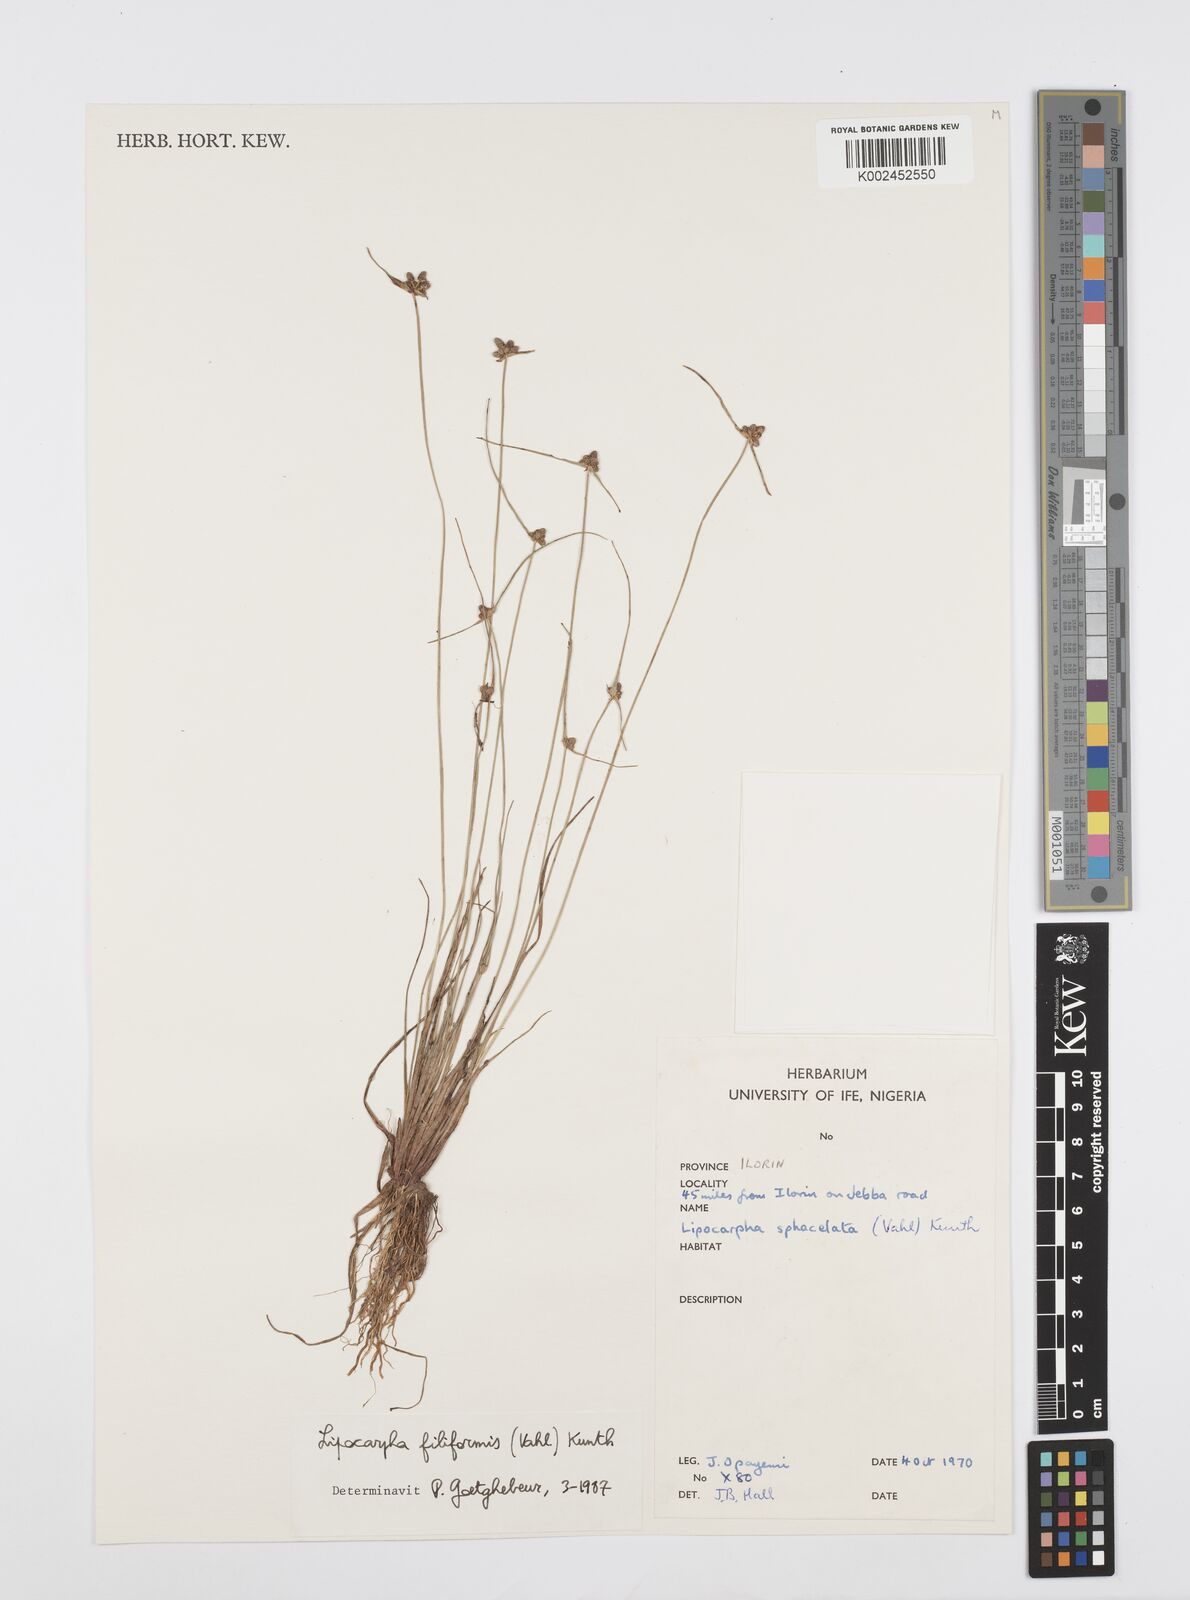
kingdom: Plantae
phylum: Tracheophyta
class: Liliopsida
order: Poales
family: Cyperaceae
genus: Cyperus
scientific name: Cyperus filiformis
